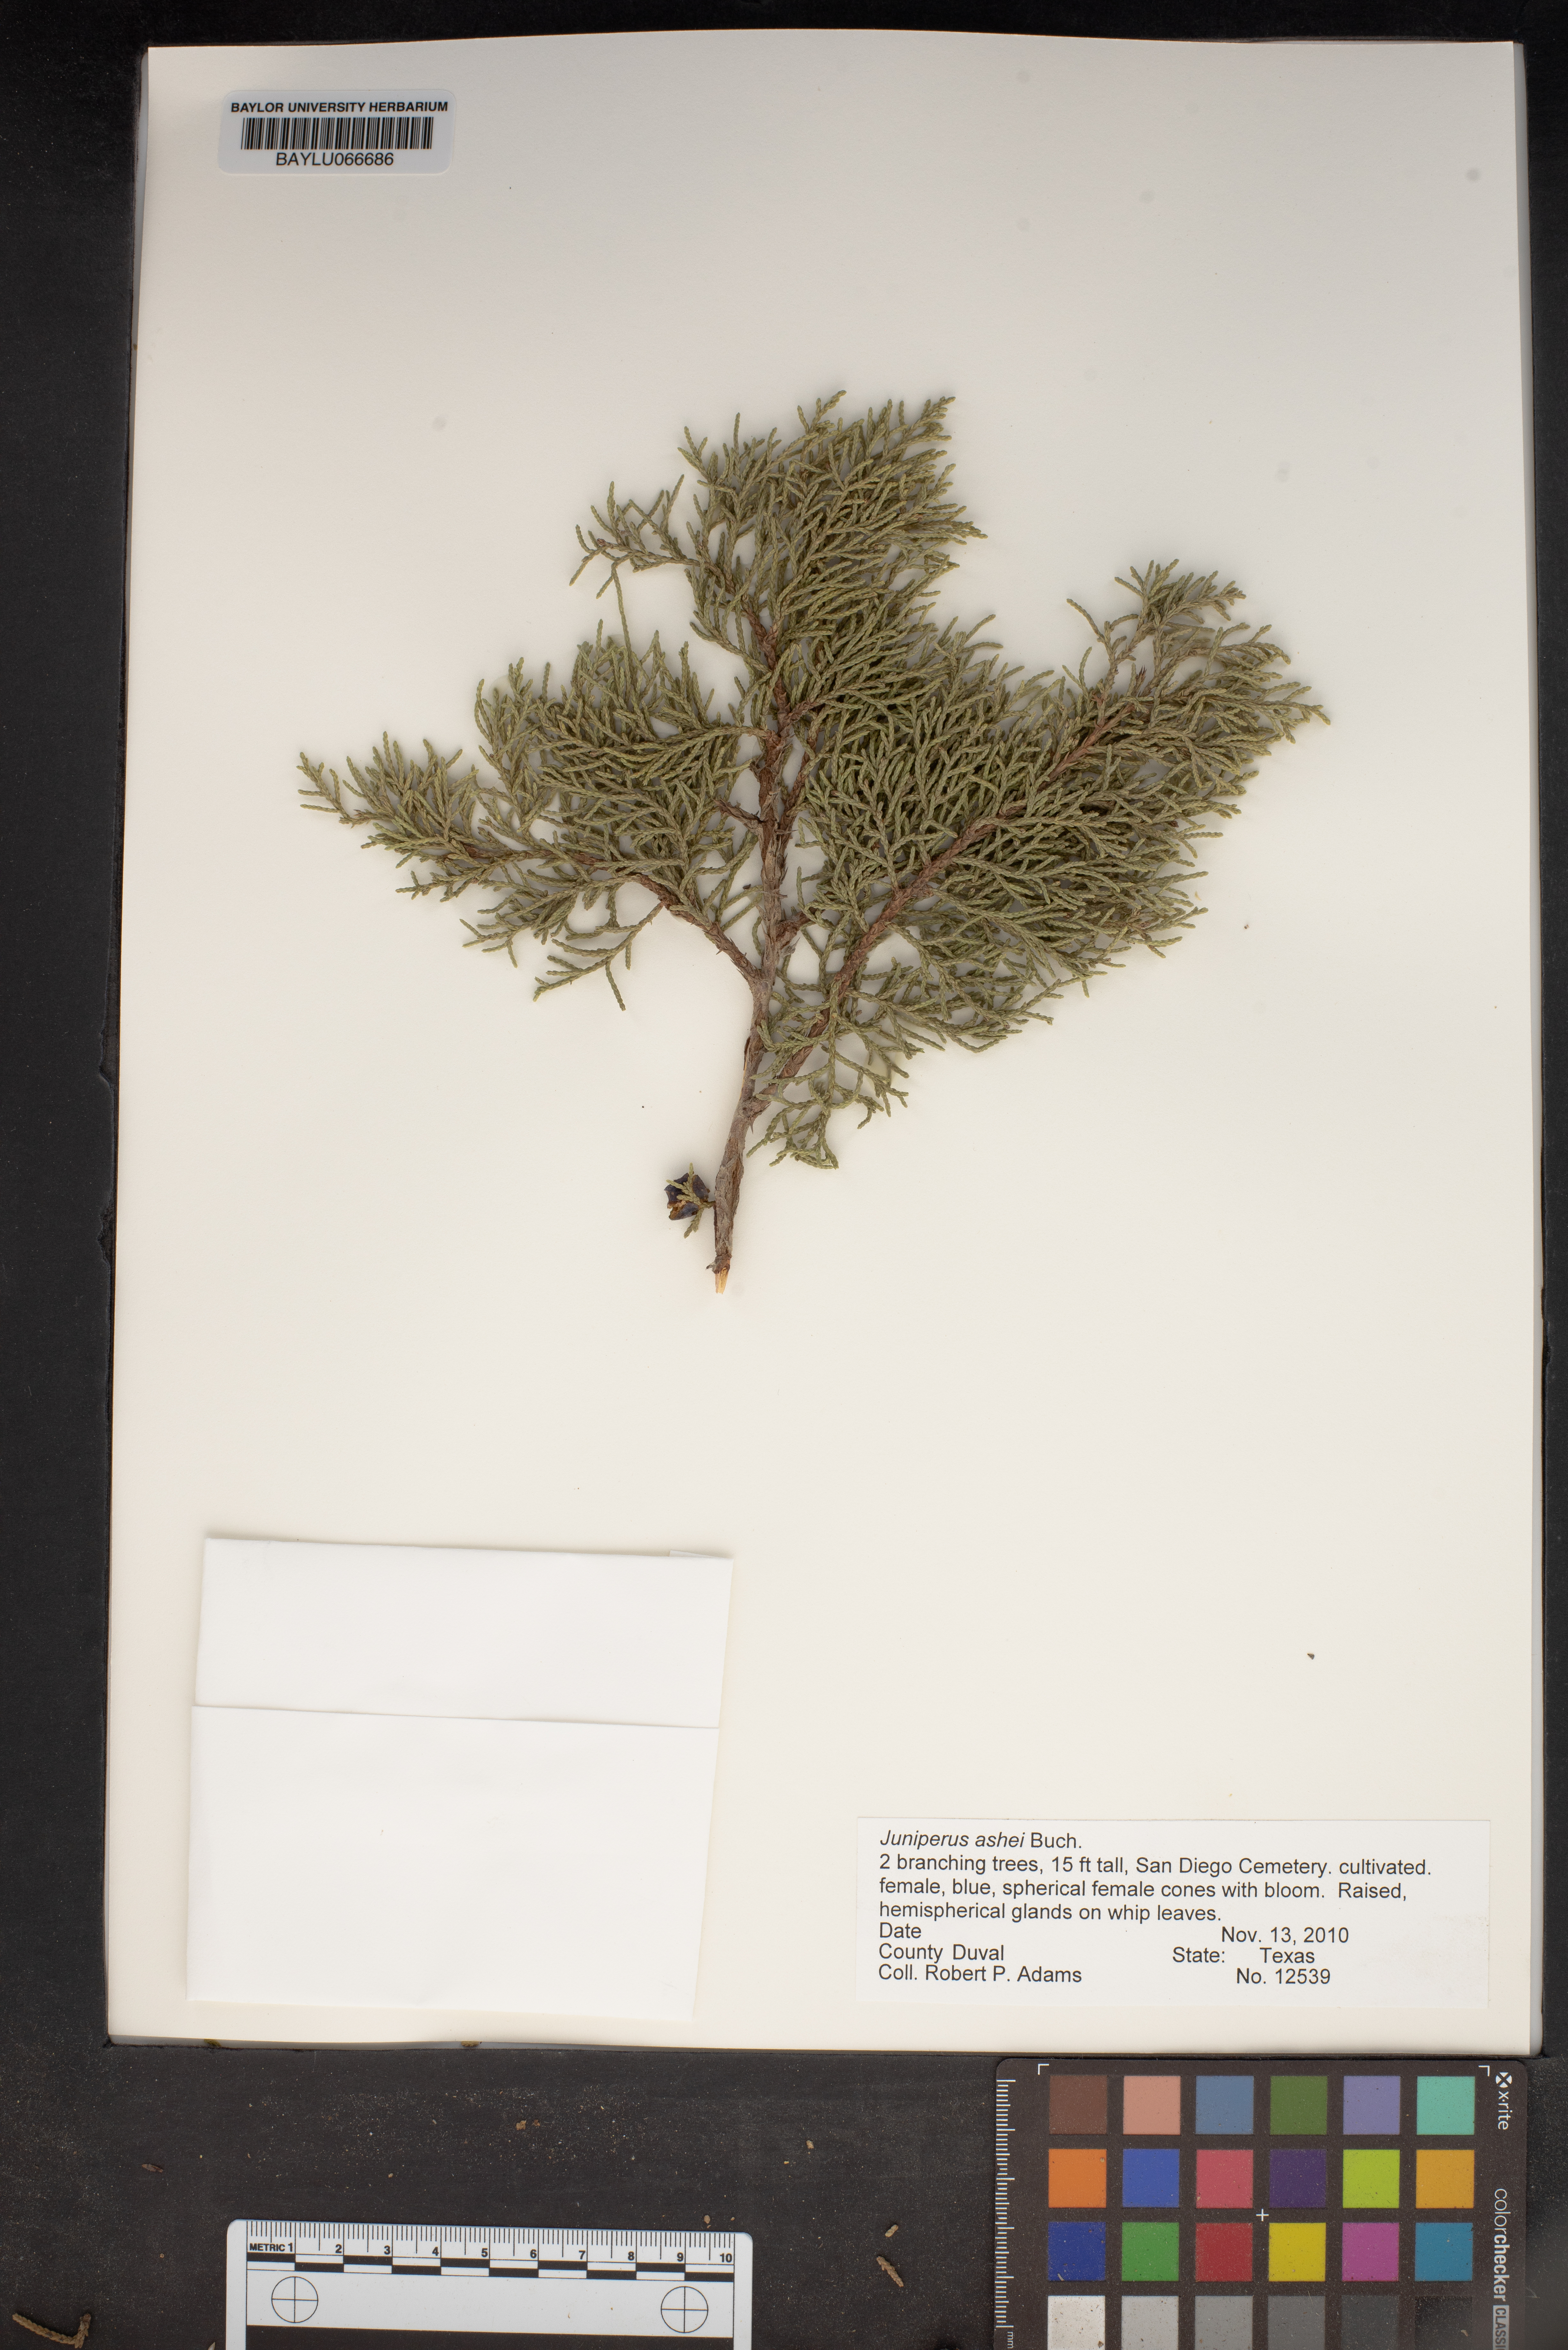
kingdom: Plantae
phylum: Tracheophyta
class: Pinopsida
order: Pinales
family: Cupressaceae
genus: Juniperus
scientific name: Juniperus ashei
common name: Mexican juniper
